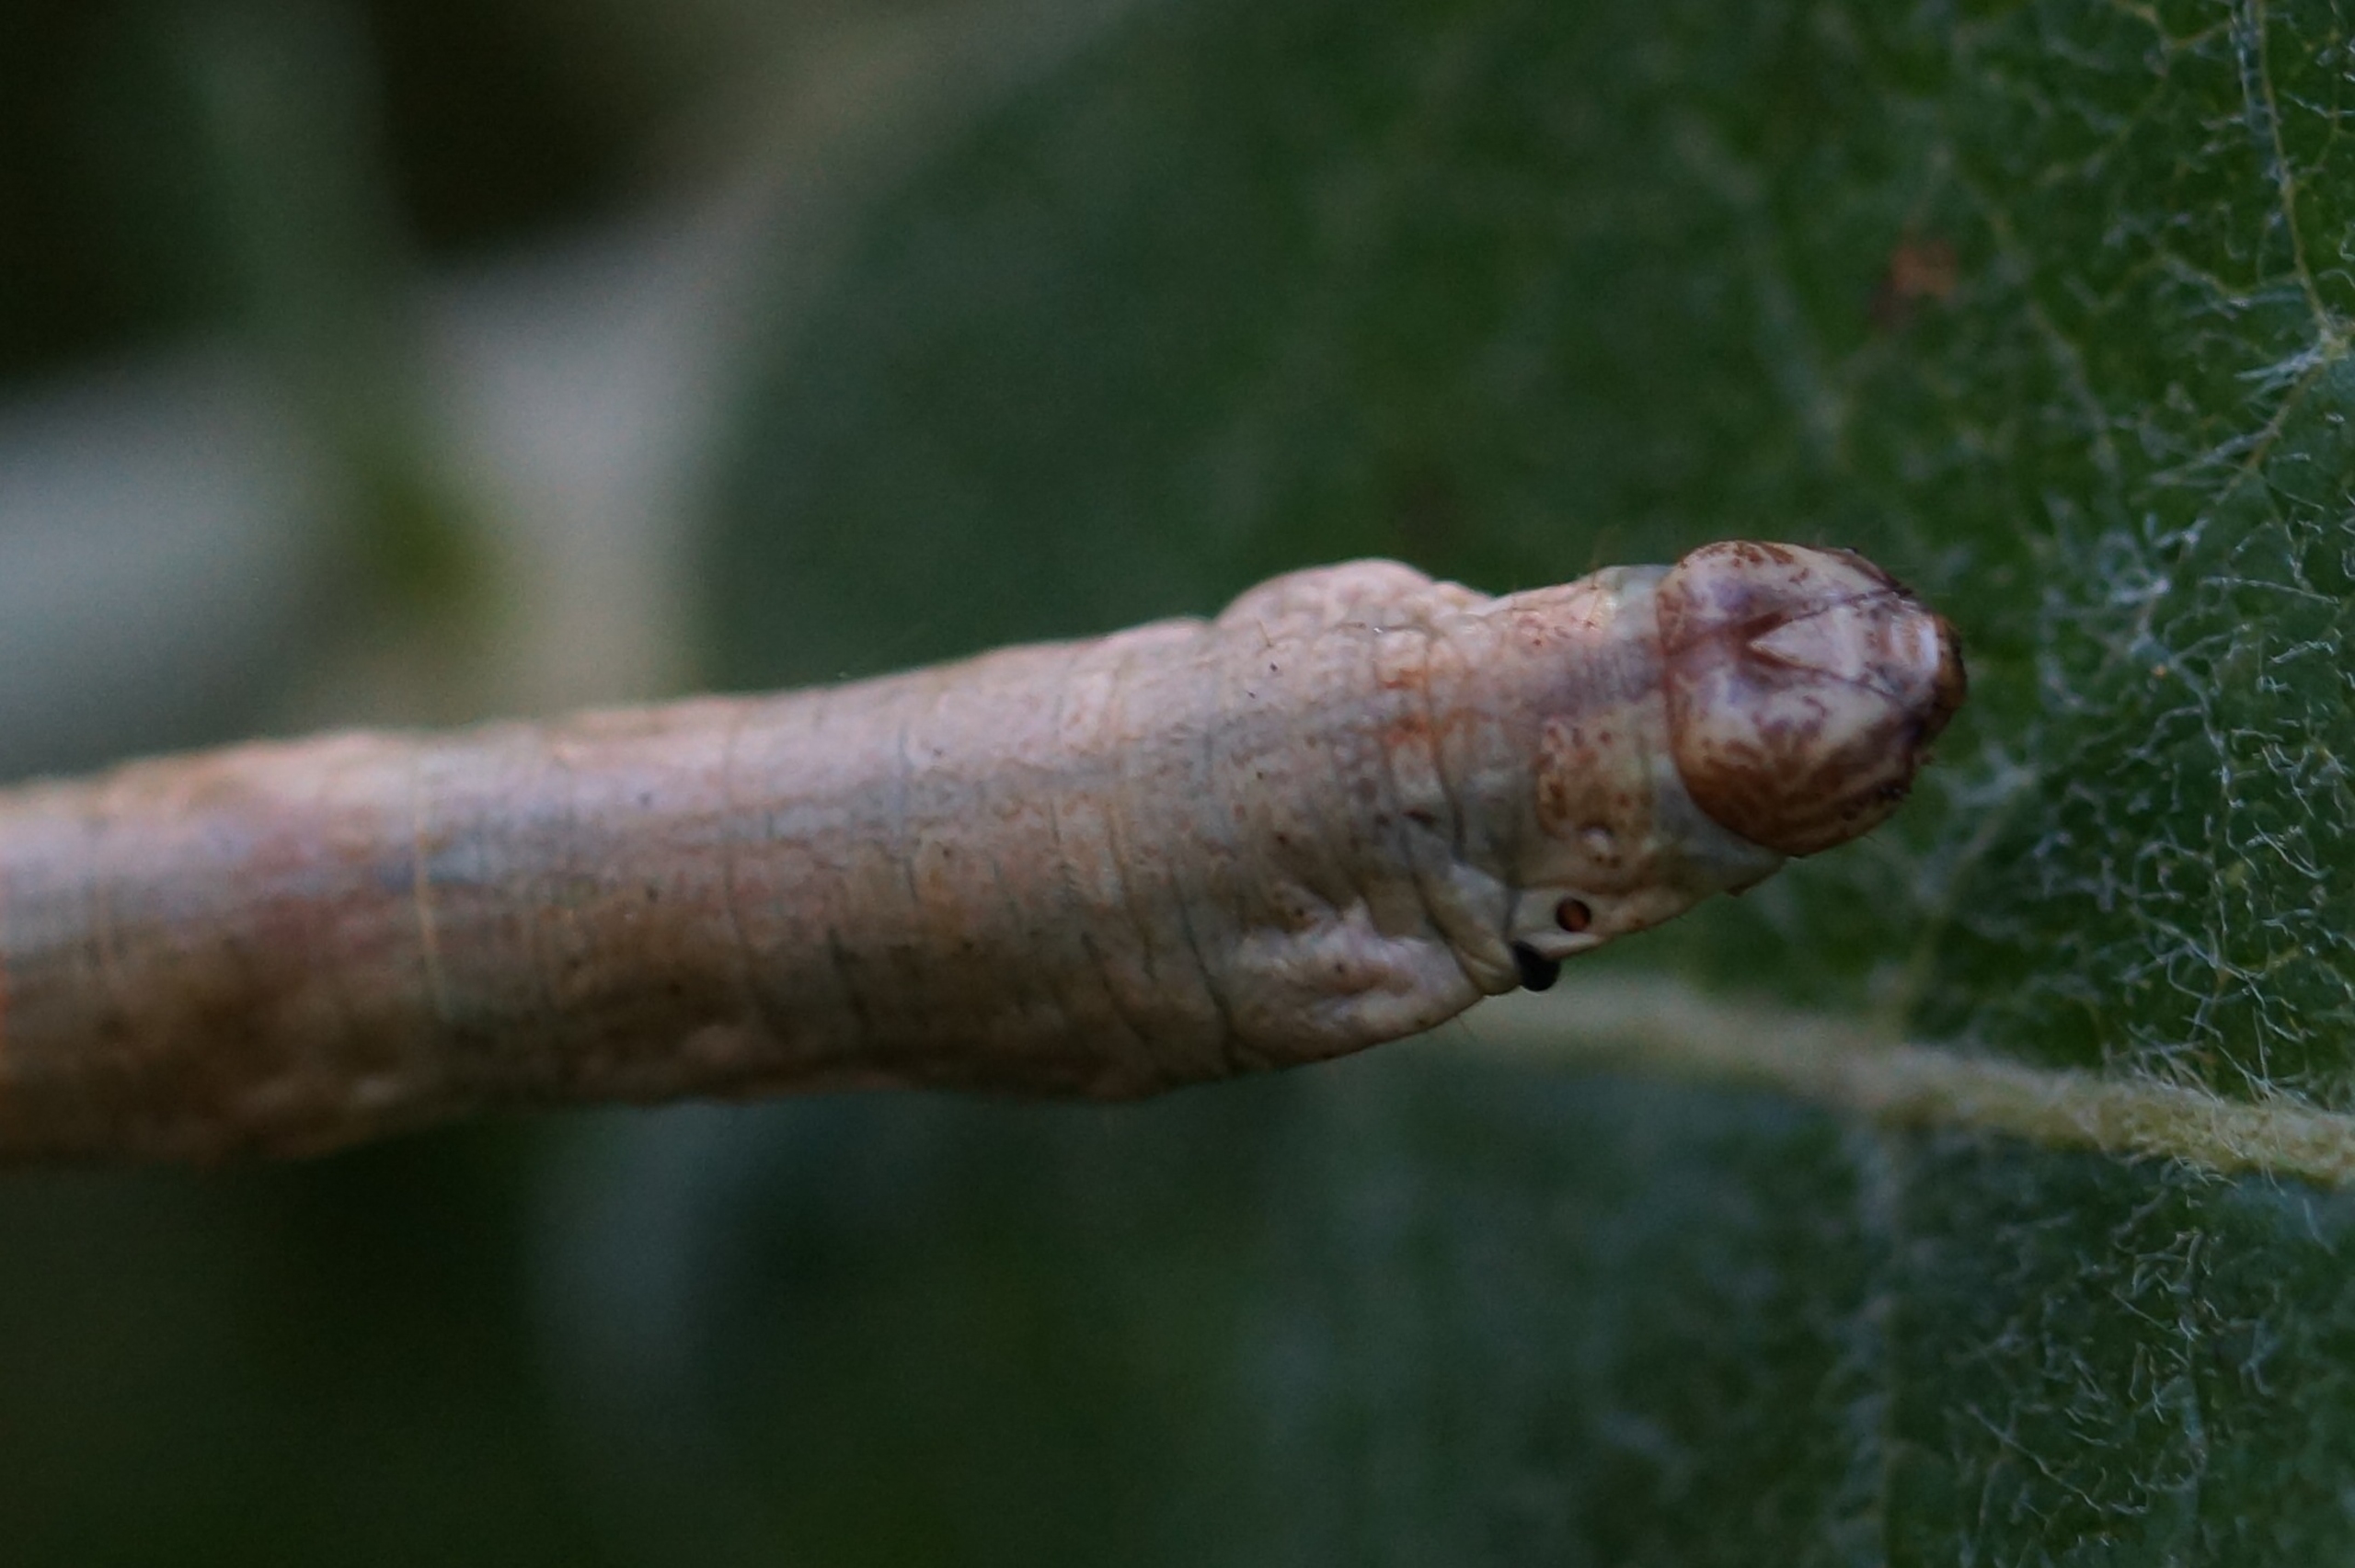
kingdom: Animalia
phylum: Arthropoda
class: Insecta
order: Lepidoptera
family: Geometridae
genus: Ectropis
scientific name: Ectropis crepuscularia
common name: Birke-barkmåler
